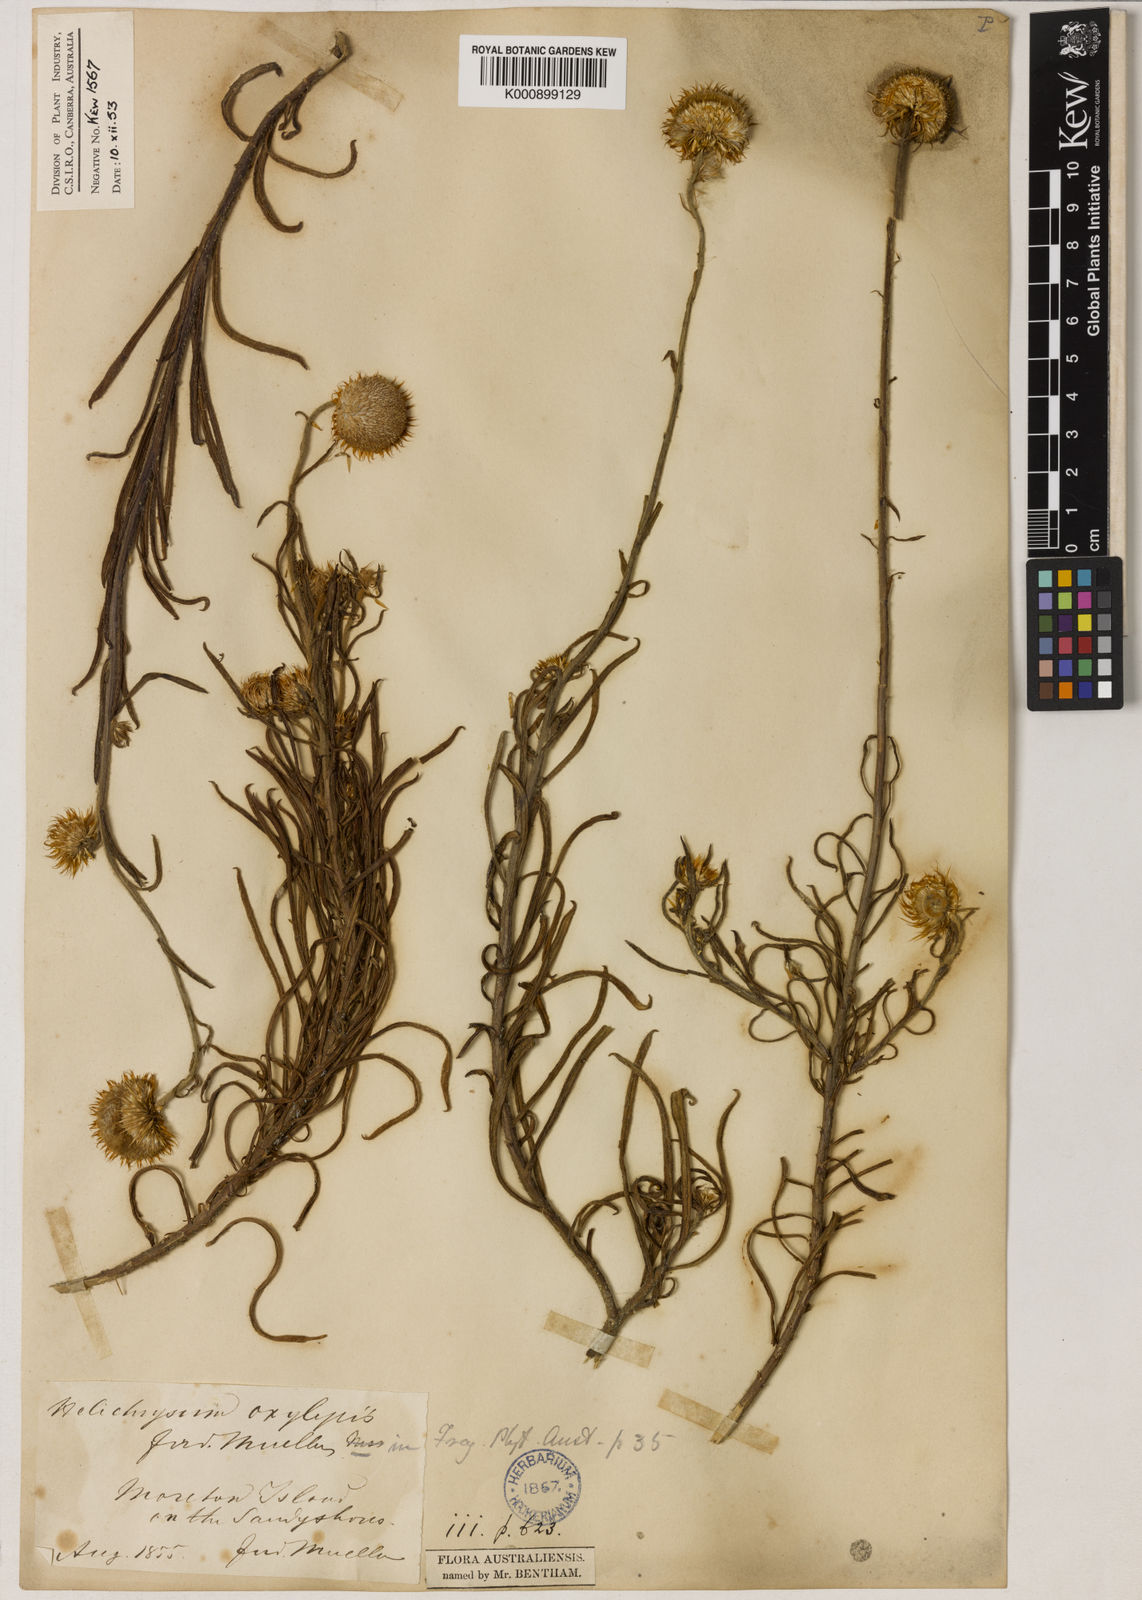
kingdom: Plantae
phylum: Tracheophyta
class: Magnoliopsida
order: Asterales
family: Asteraceae
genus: Coronidium
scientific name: Coronidium oxylepis
